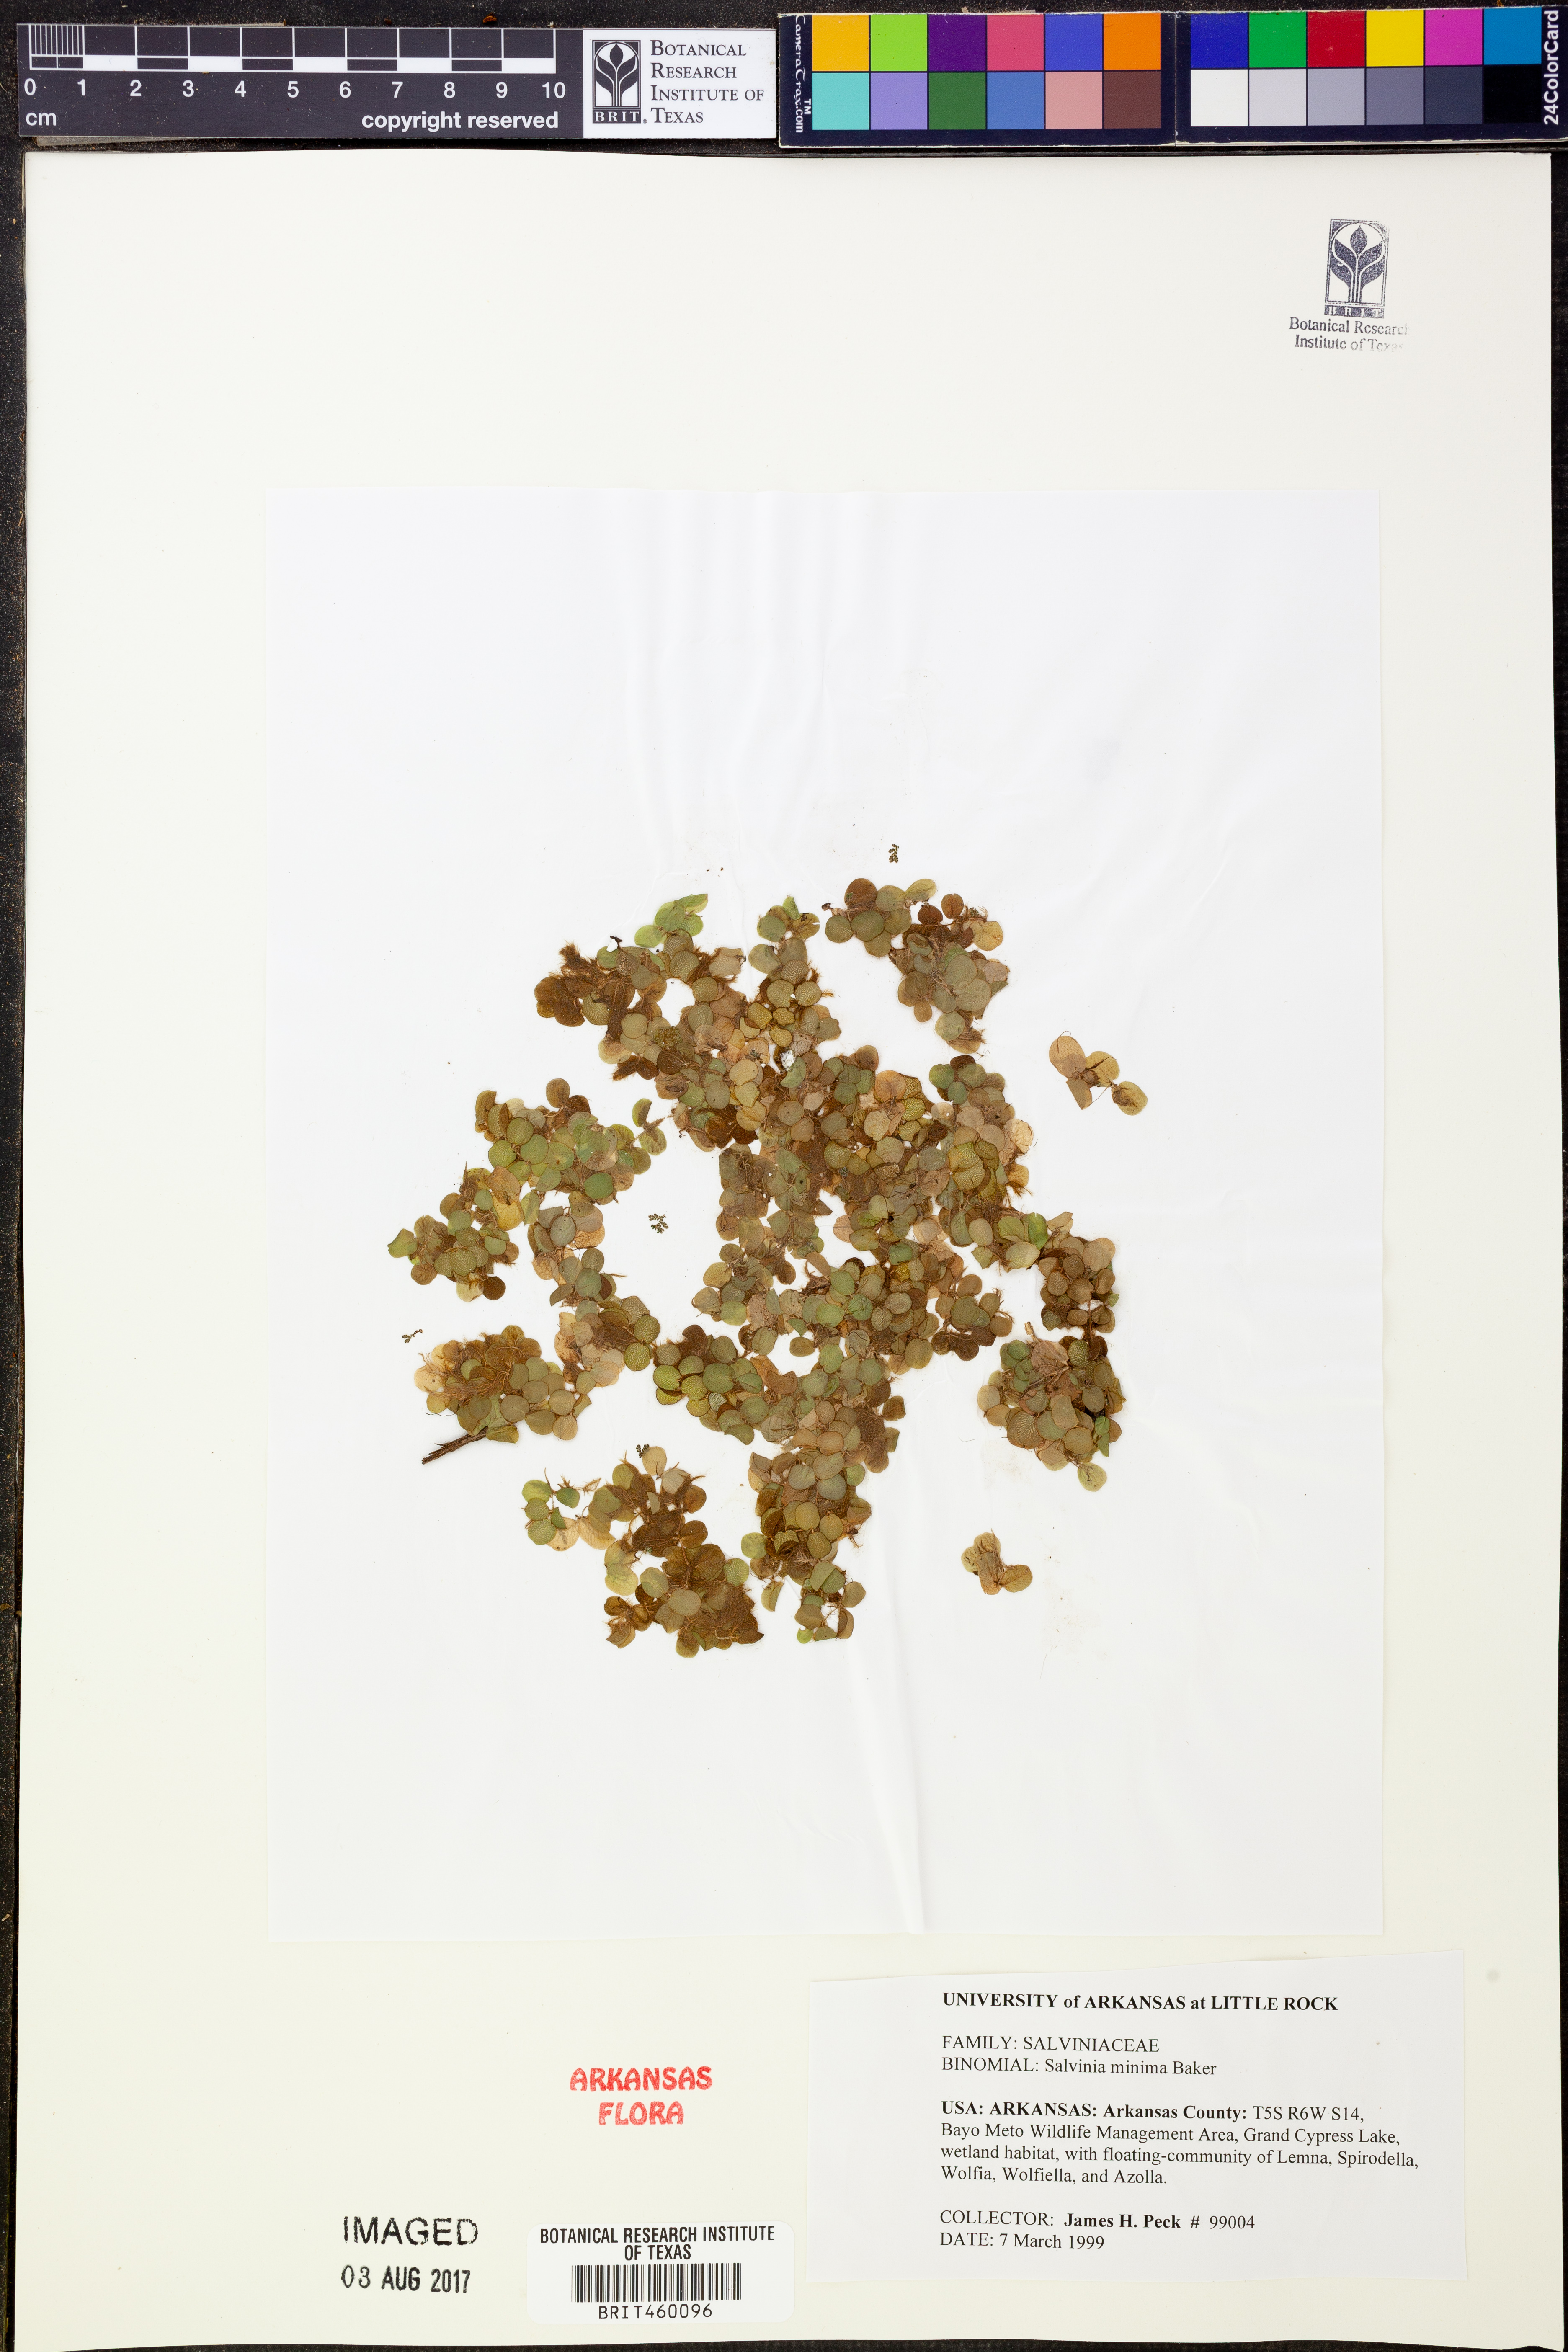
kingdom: Plantae
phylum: Tracheophyta
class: Polypodiopsida
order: Salviniales
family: Salviniaceae
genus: Salvinia
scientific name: Salvinia minima
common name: Water spangles
